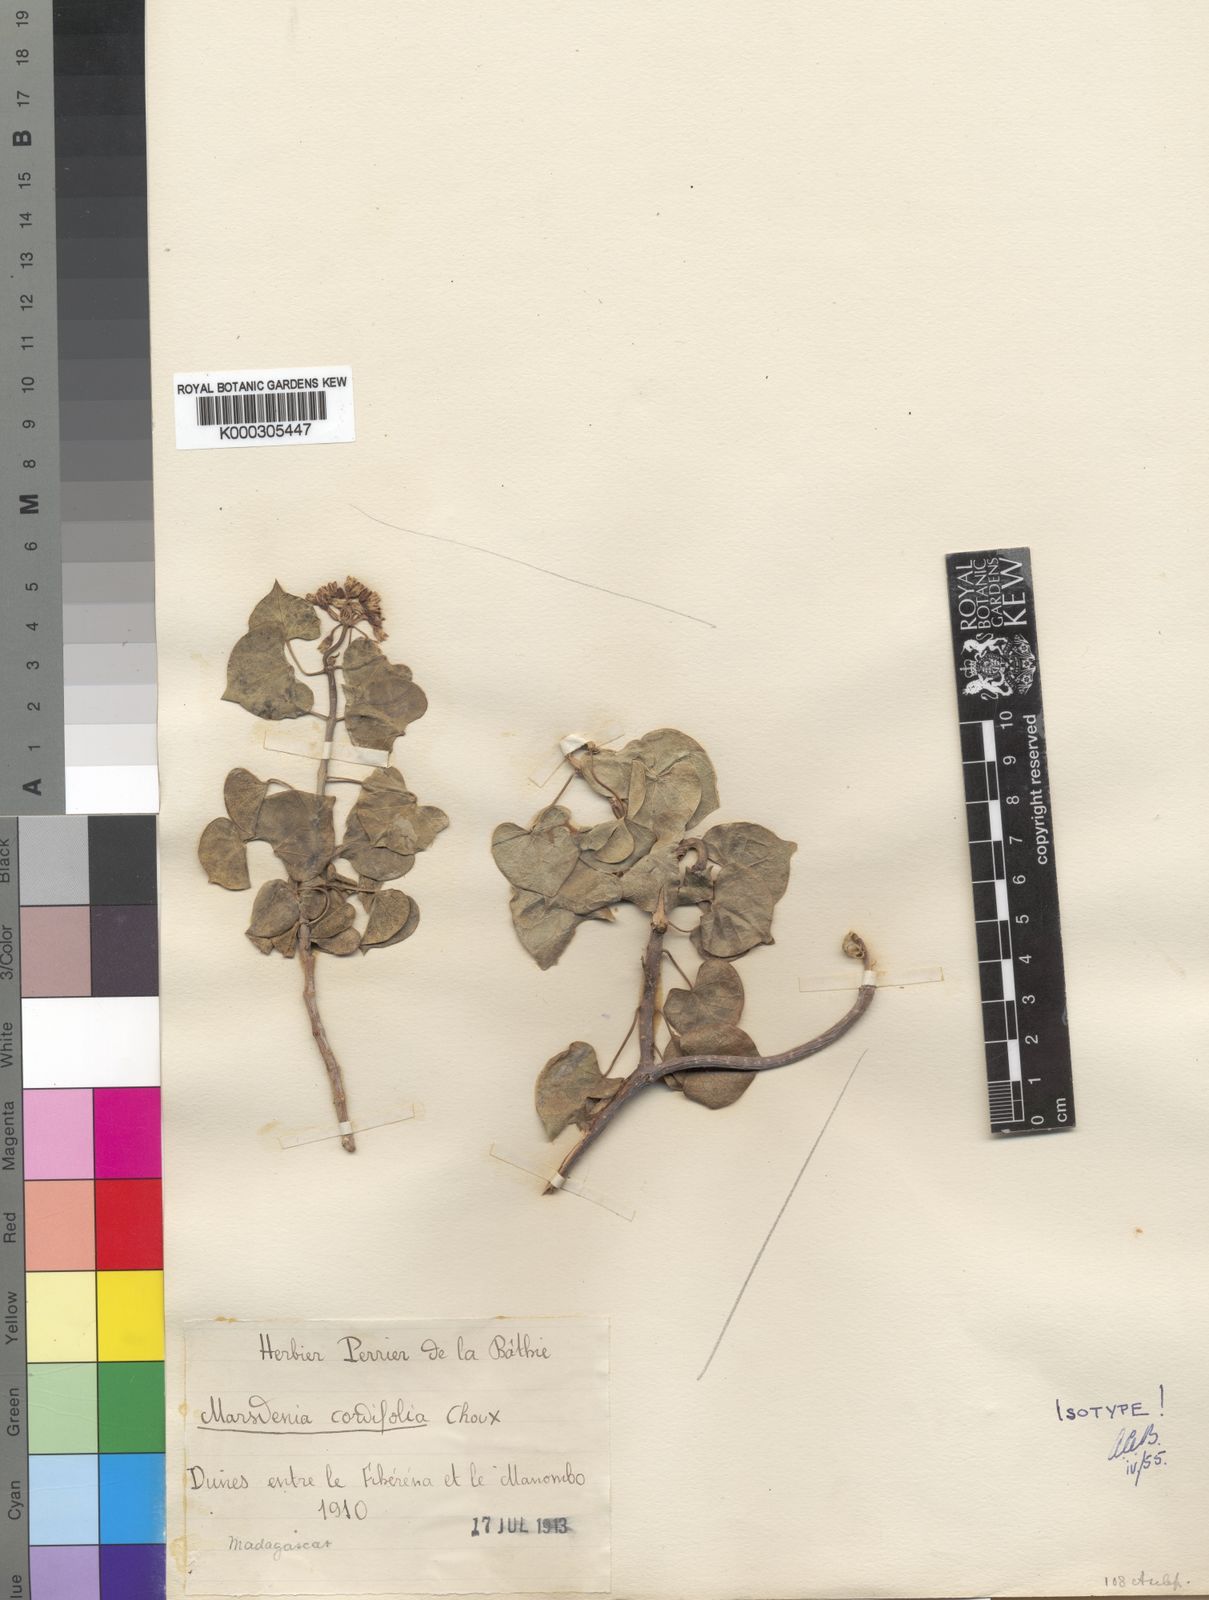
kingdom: Plantae
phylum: Tracheophyta
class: Magnoliopsida
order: Gentianales
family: Apocynaceae
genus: Sicyocarpus
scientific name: Sicyocarpus cordifolius
